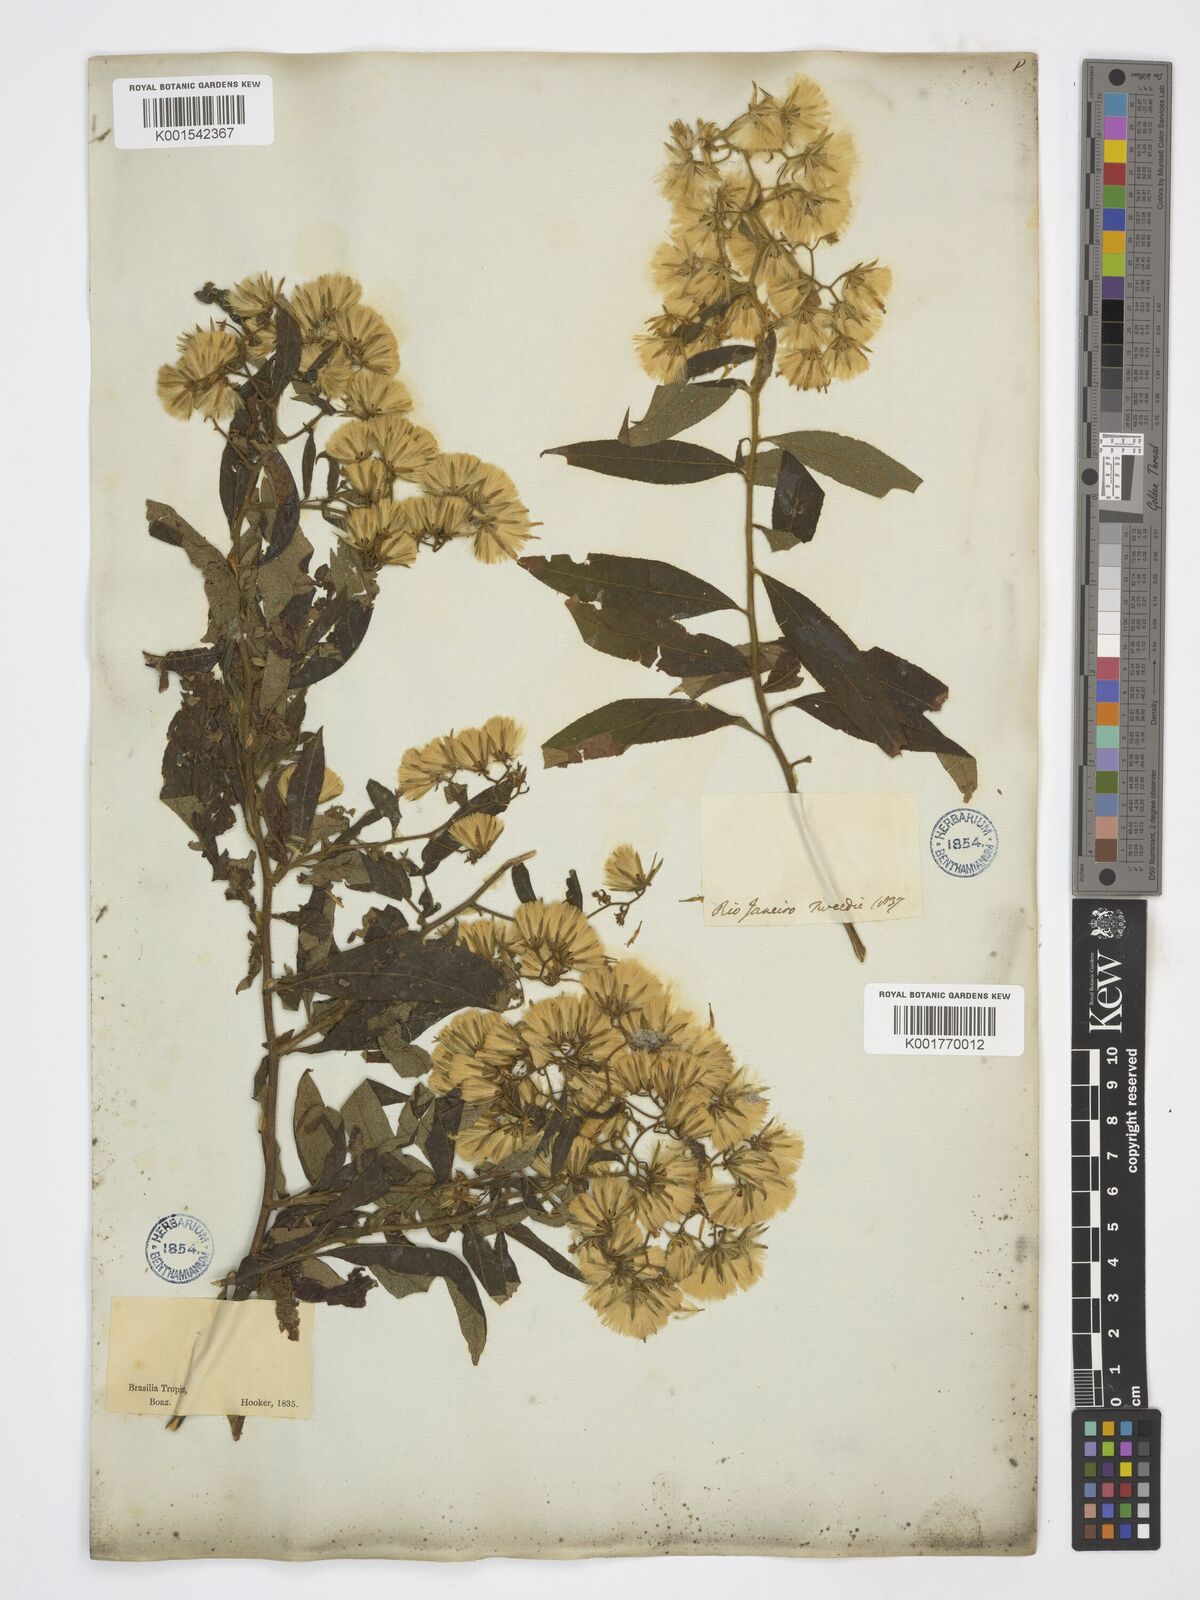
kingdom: Plantae
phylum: Tracheophyta
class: Magnoliopsida
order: Asterales
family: Asteraceae
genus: Trixis
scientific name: Trixis divaricata
